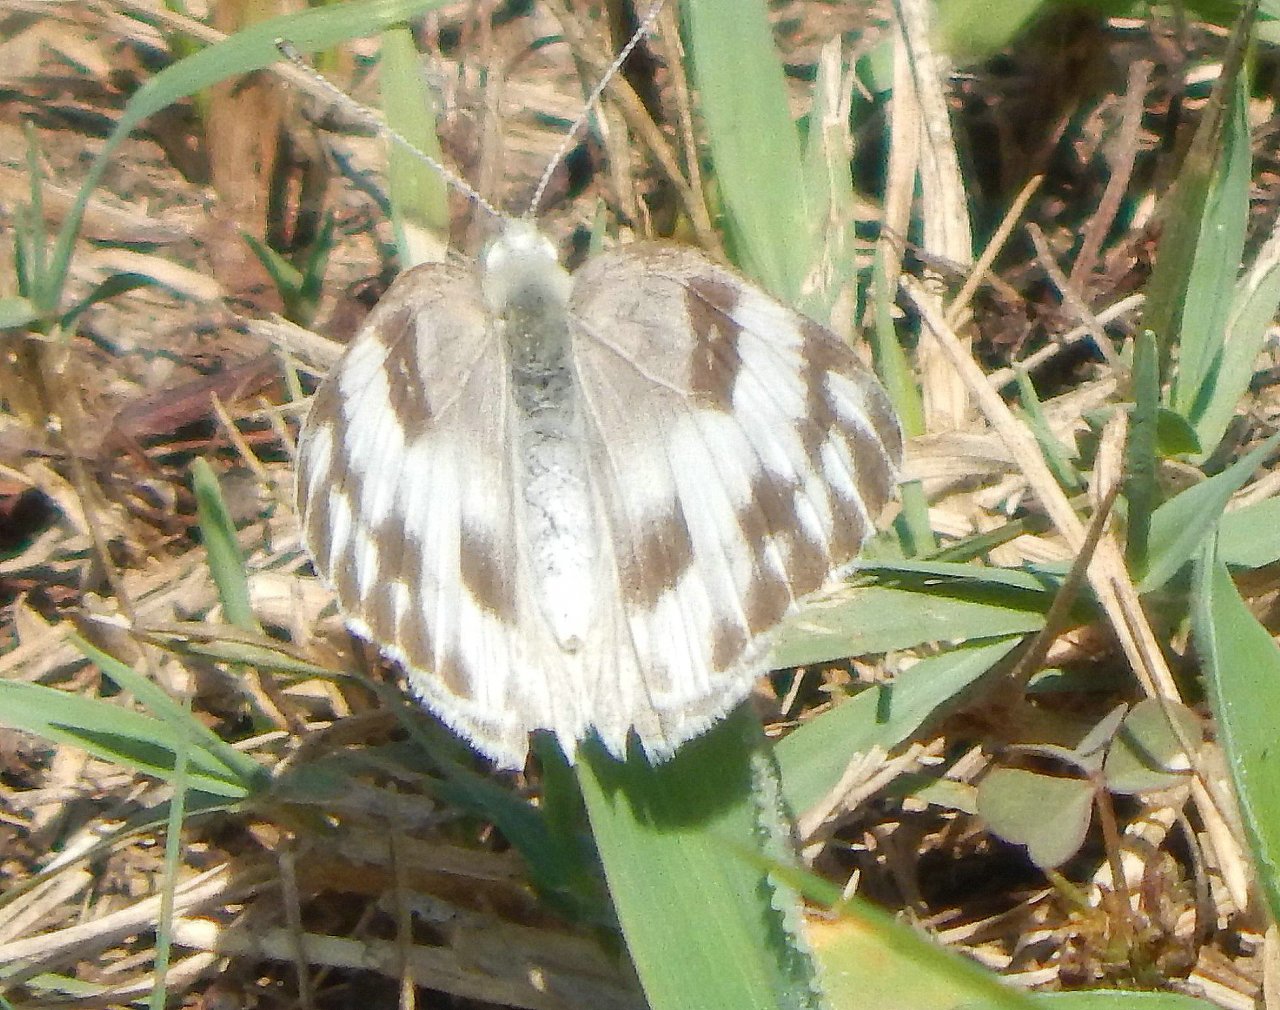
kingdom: Animalia
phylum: Arthropoda
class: Insecta
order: Lepidoptera
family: Pieridae
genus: Pontia
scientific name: Pontia protodice
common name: Checkered White
